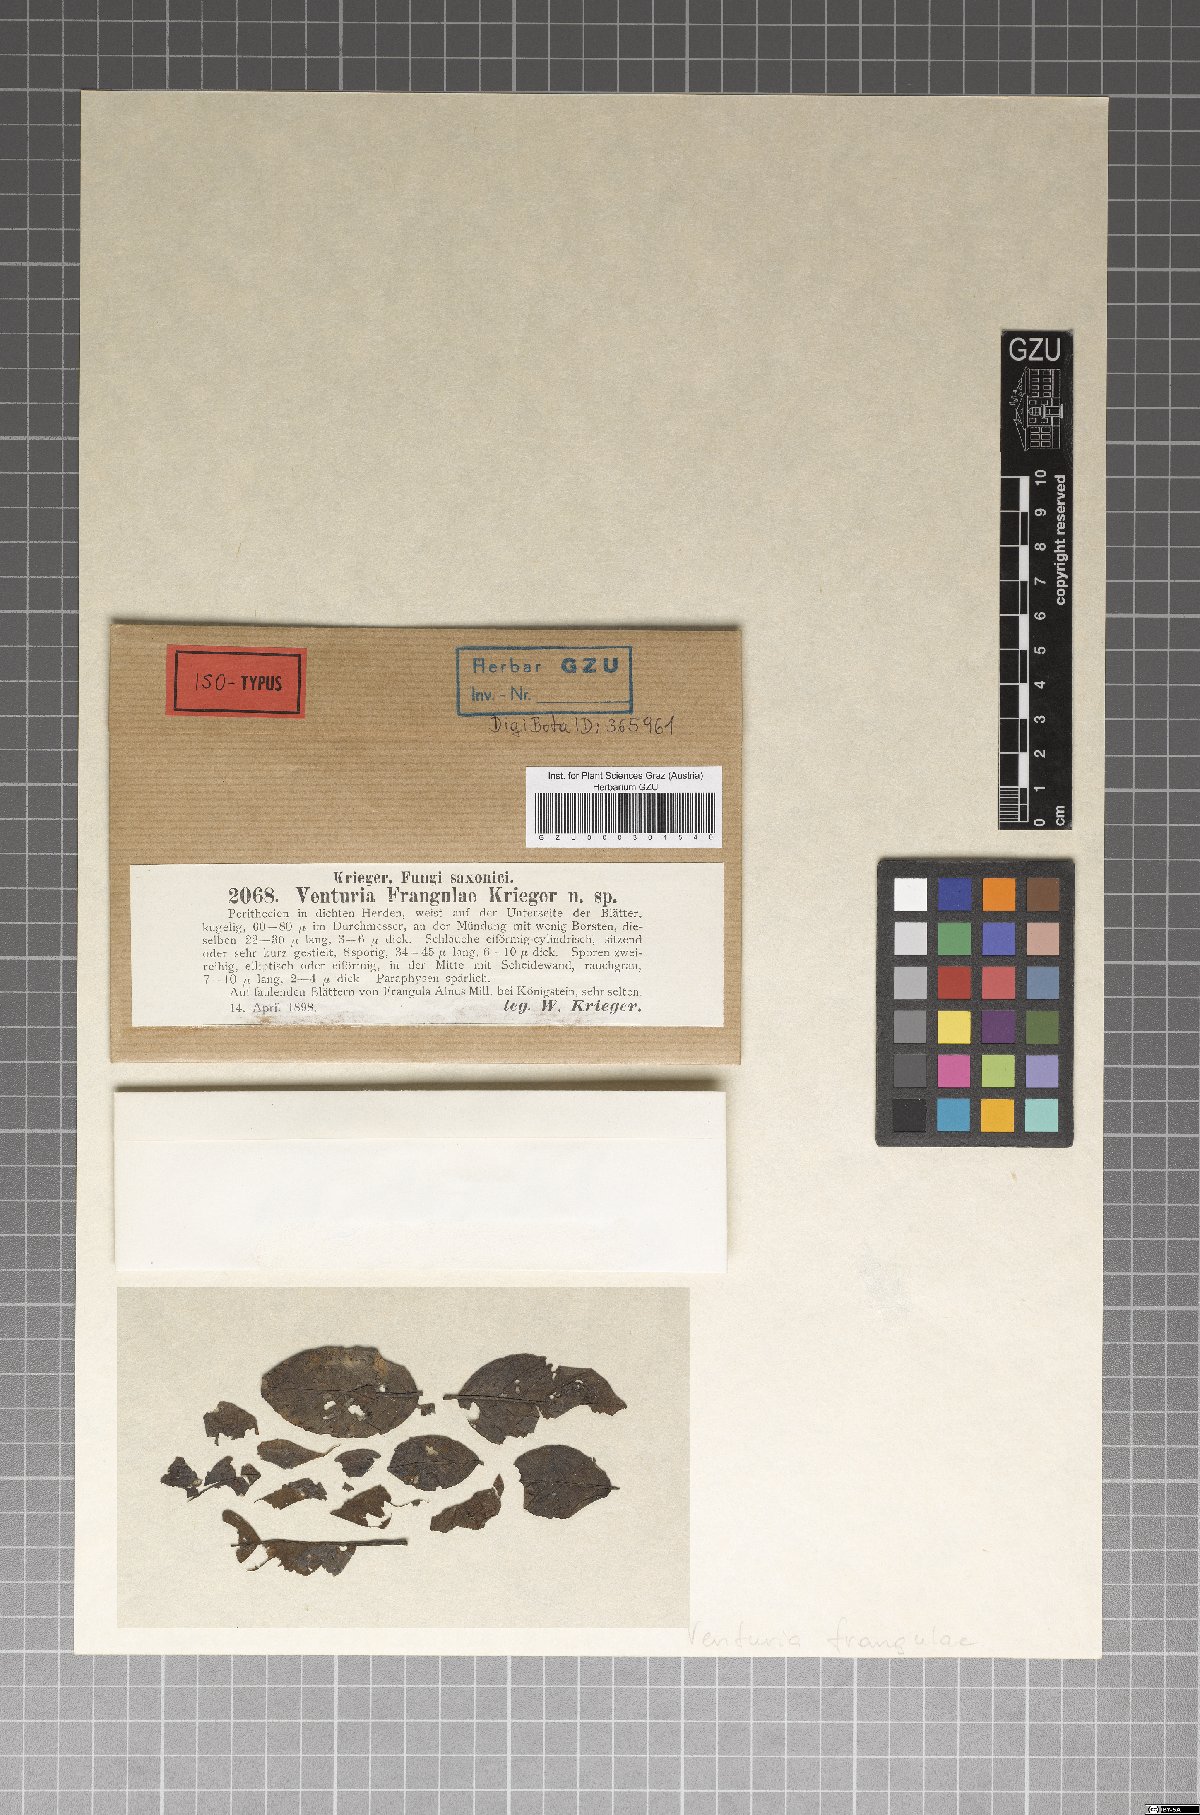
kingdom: Fungi
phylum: Ascomycota
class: Dothideomycetes
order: Venturiales
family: Venturiaceae
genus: Venturia
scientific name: Venturia frangulae
